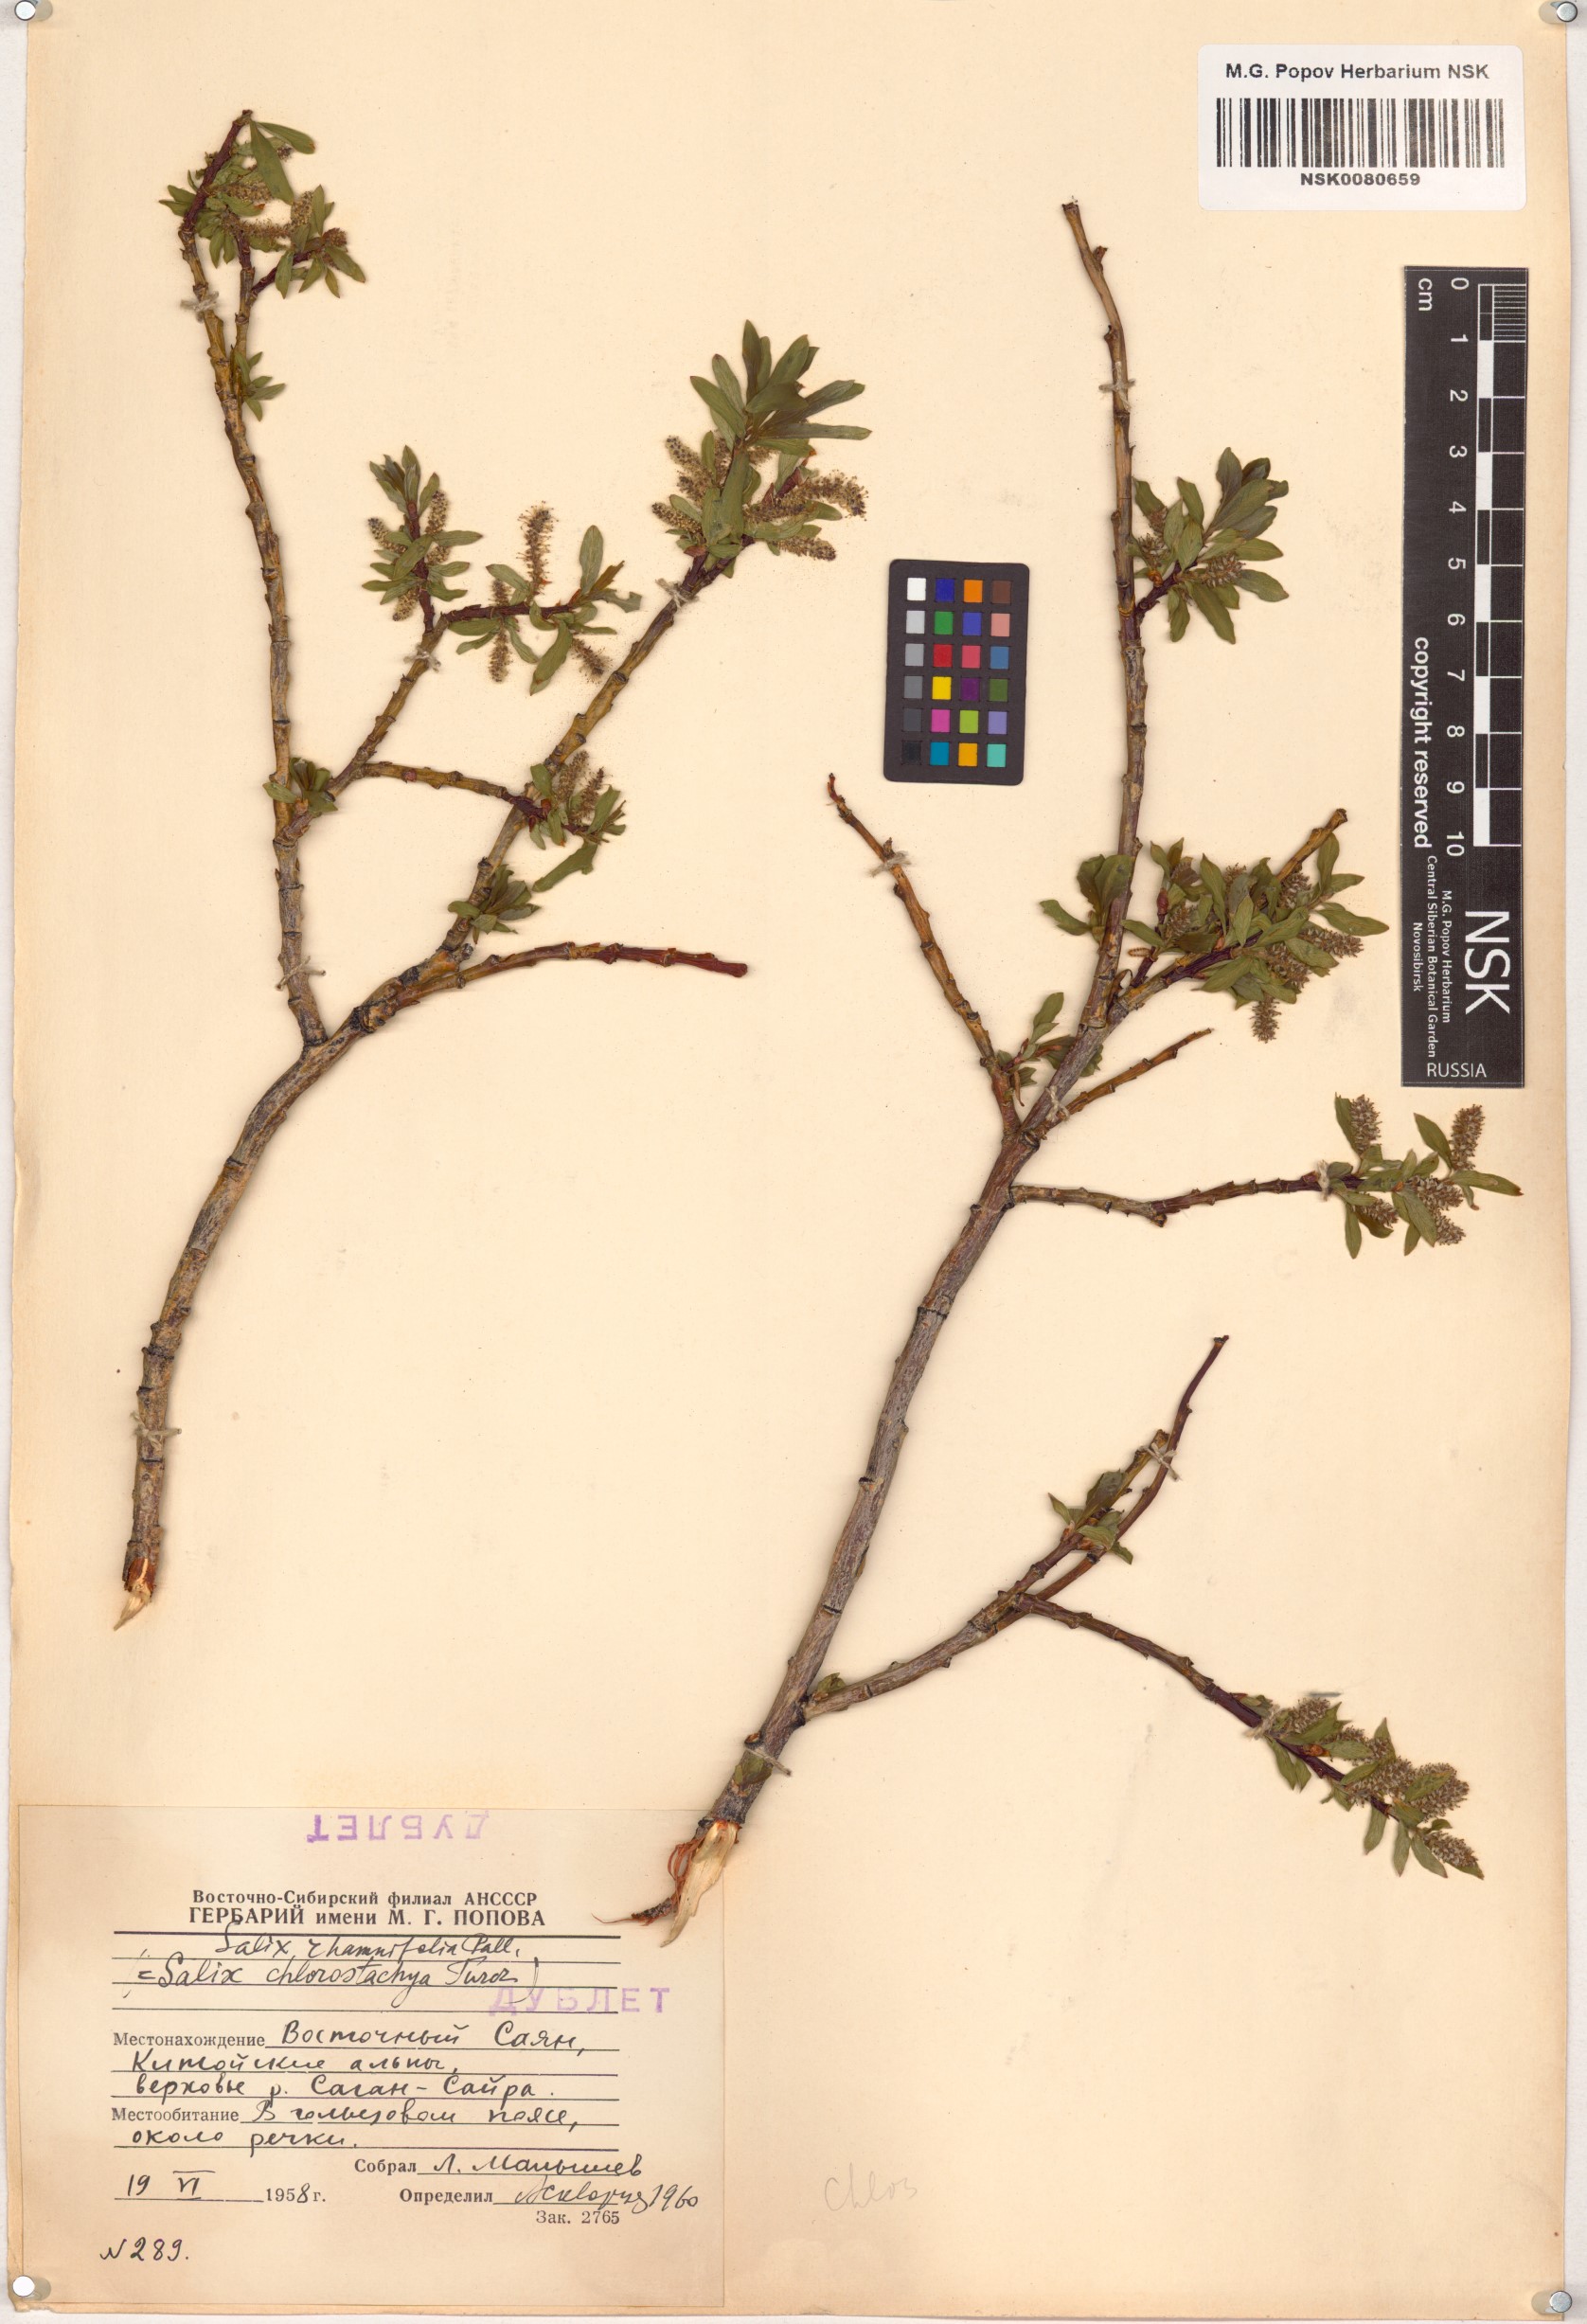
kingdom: Plantae
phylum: Tracheophyta
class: Magnoliopsida
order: Malpighiales
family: Salicaceae
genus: Salix
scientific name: Salix rhamnifolia
